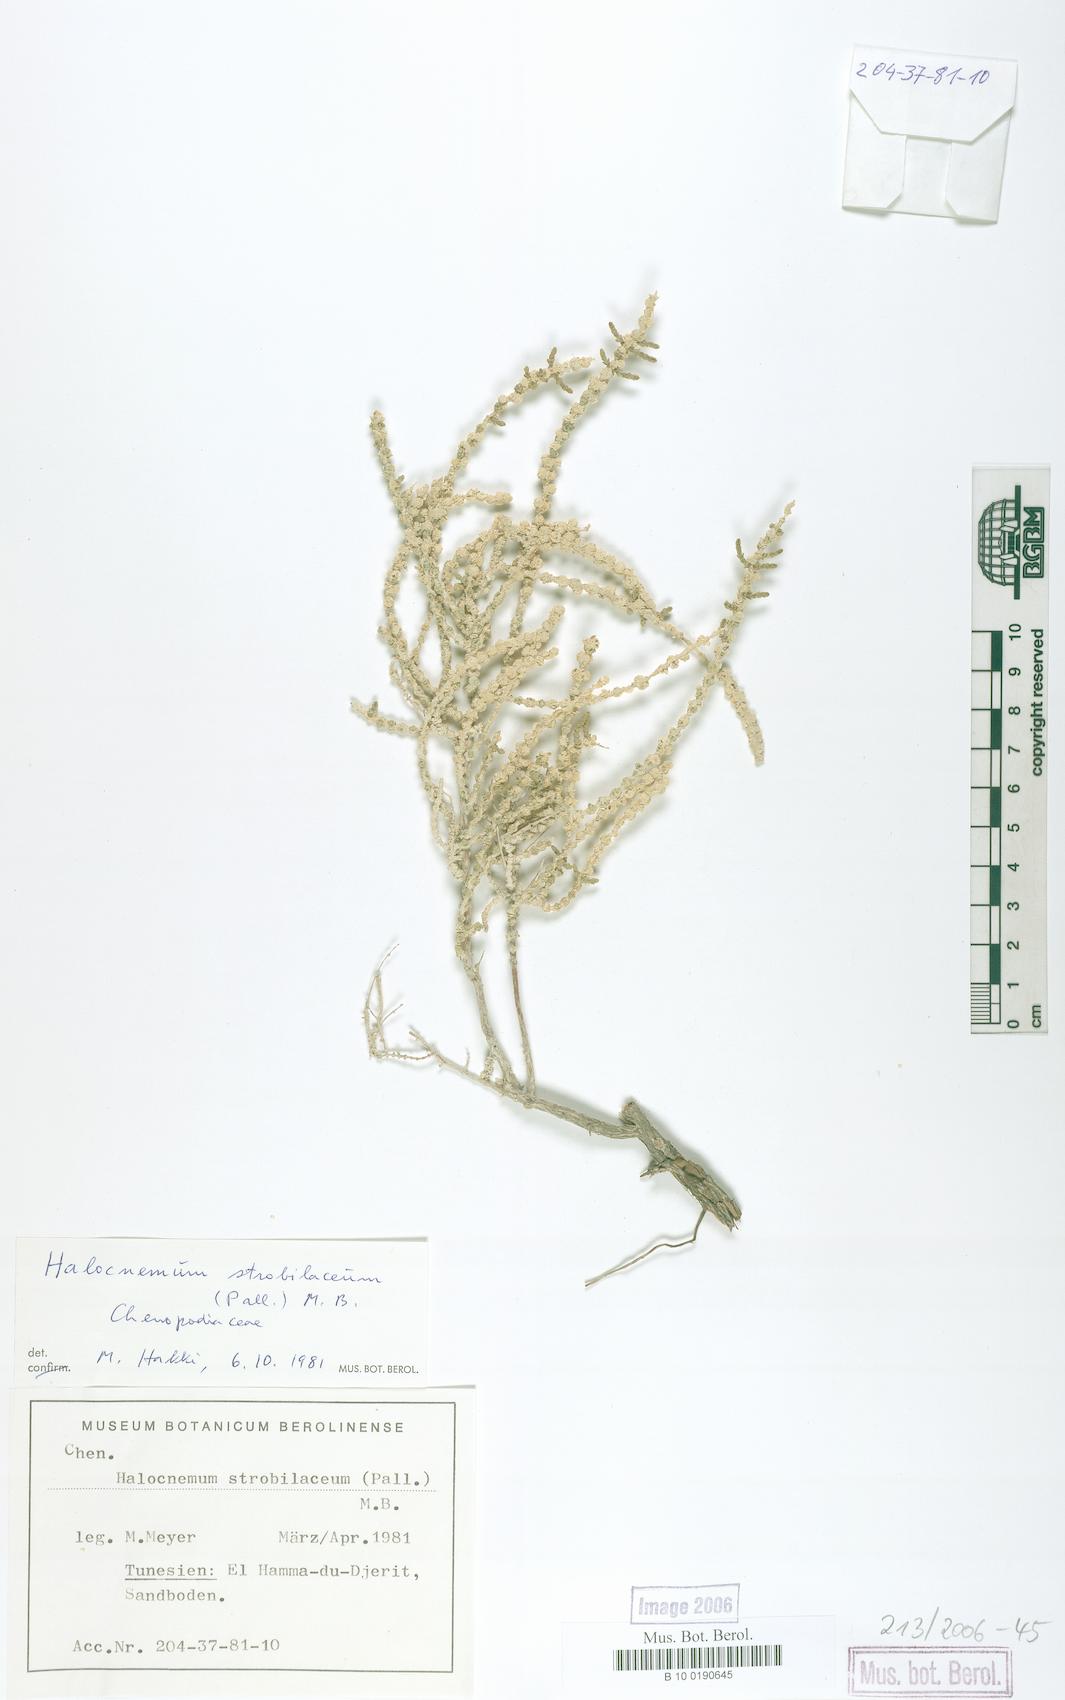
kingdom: Plantae
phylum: Tracheophyta
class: Magnoliopsida
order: Caryophyllales
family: Amaranthaceae
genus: Halocnemum
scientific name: Halocnemum strobilaceum
